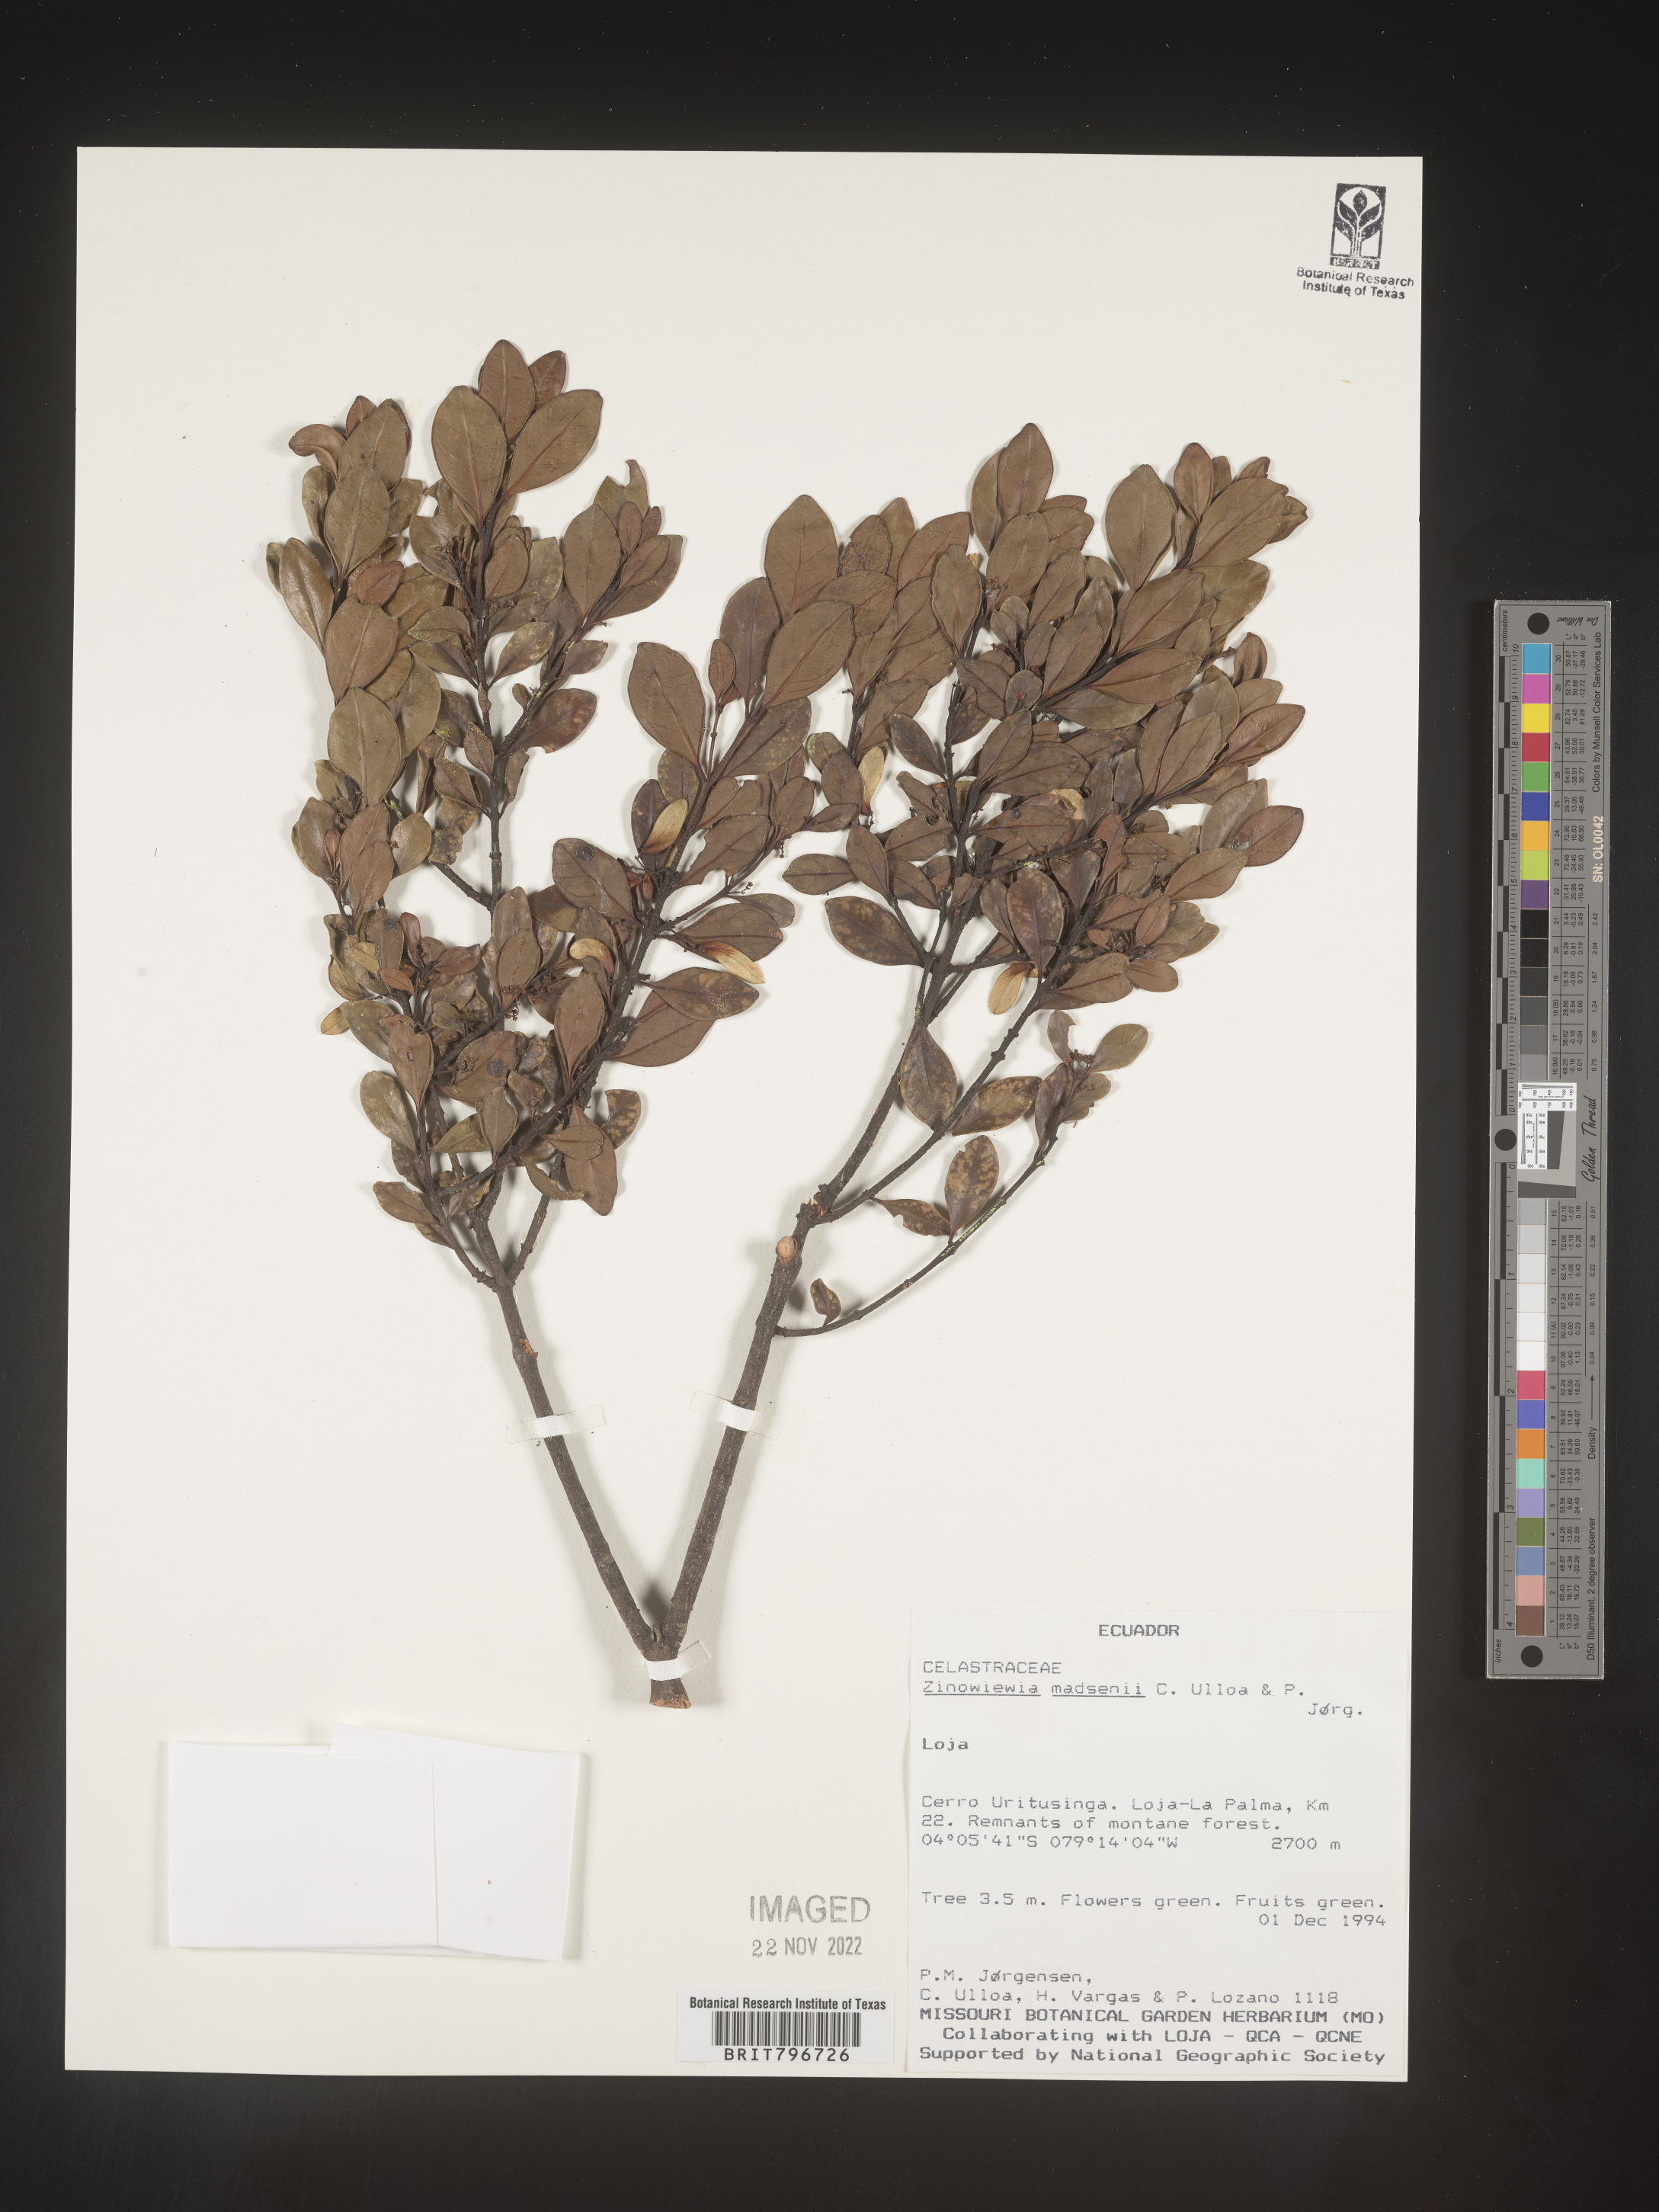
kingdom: Plantae
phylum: Tracheophyta
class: Magnoliopsida
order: Celastrales
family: Celastraceae
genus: Zinowiewia
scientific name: Zinowiewia
